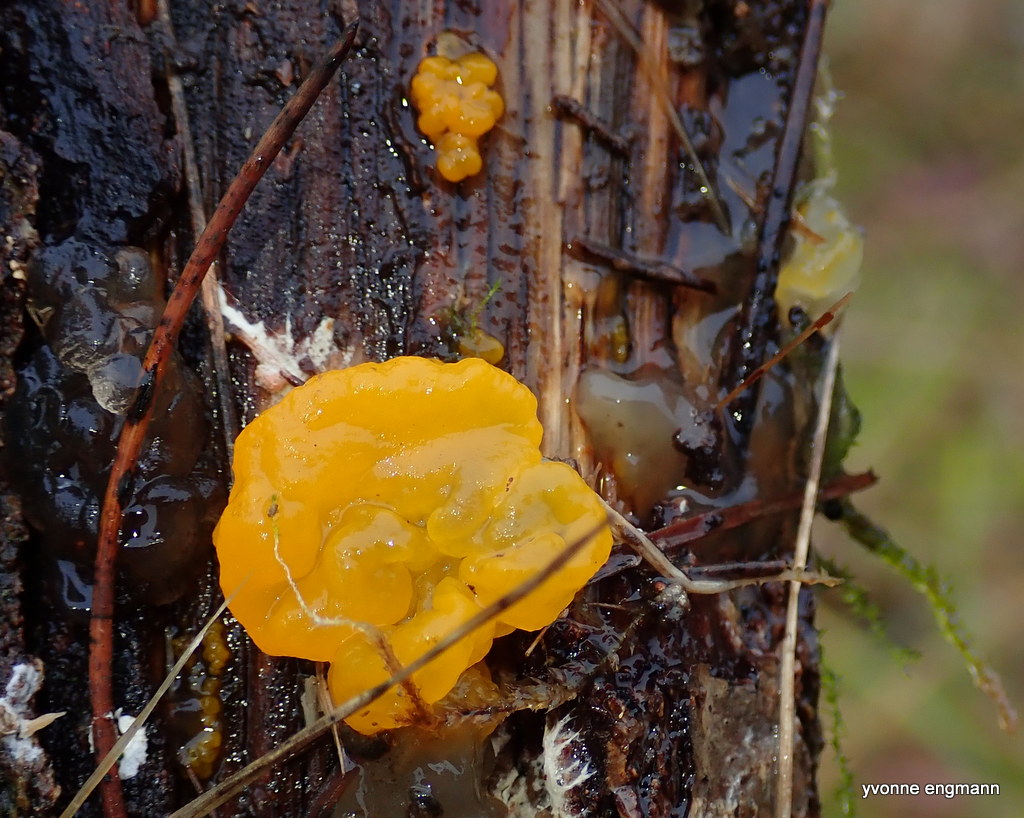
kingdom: Fungi
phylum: Basidiomycota
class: Tremellomycetes
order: Tremellales
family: Tremellaceae
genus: Tremella
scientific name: Tremella mesenterica
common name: gul bævresvamp
